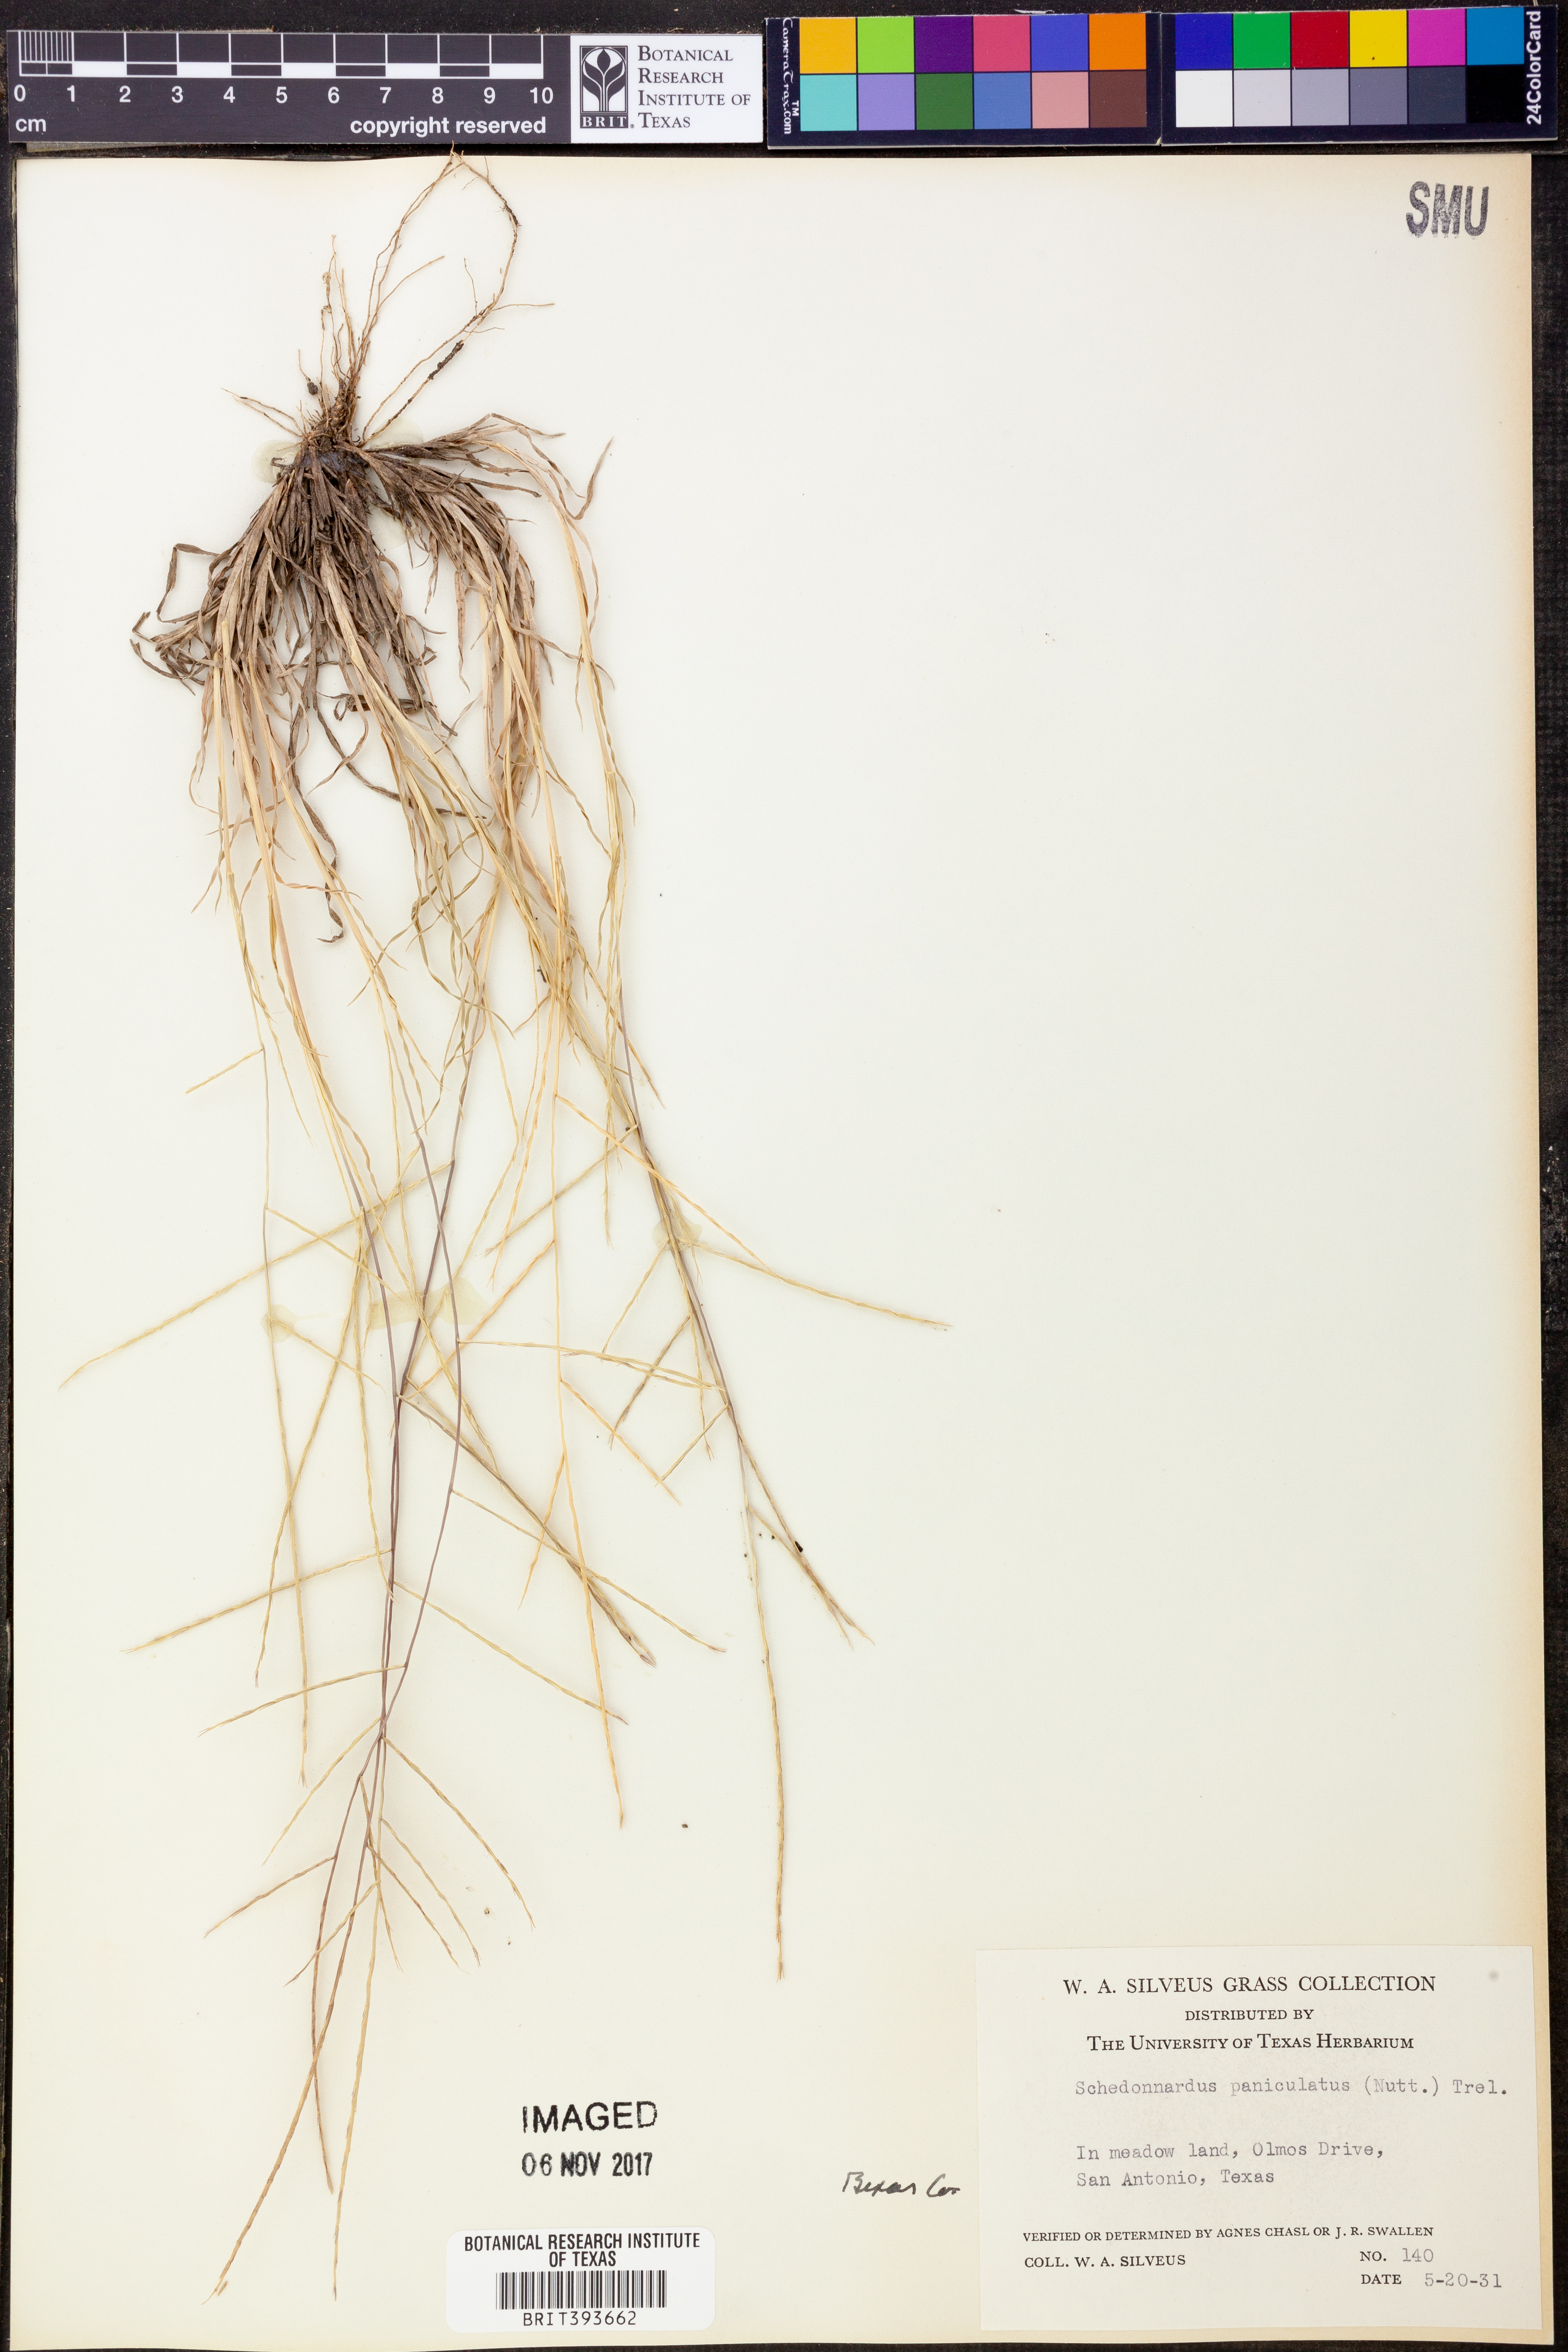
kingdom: Plantae
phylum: Tracheophyta
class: Liliopsida
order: Poales
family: Poaceae
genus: Muhlenbergia
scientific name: Muhlenbergia paniculata
